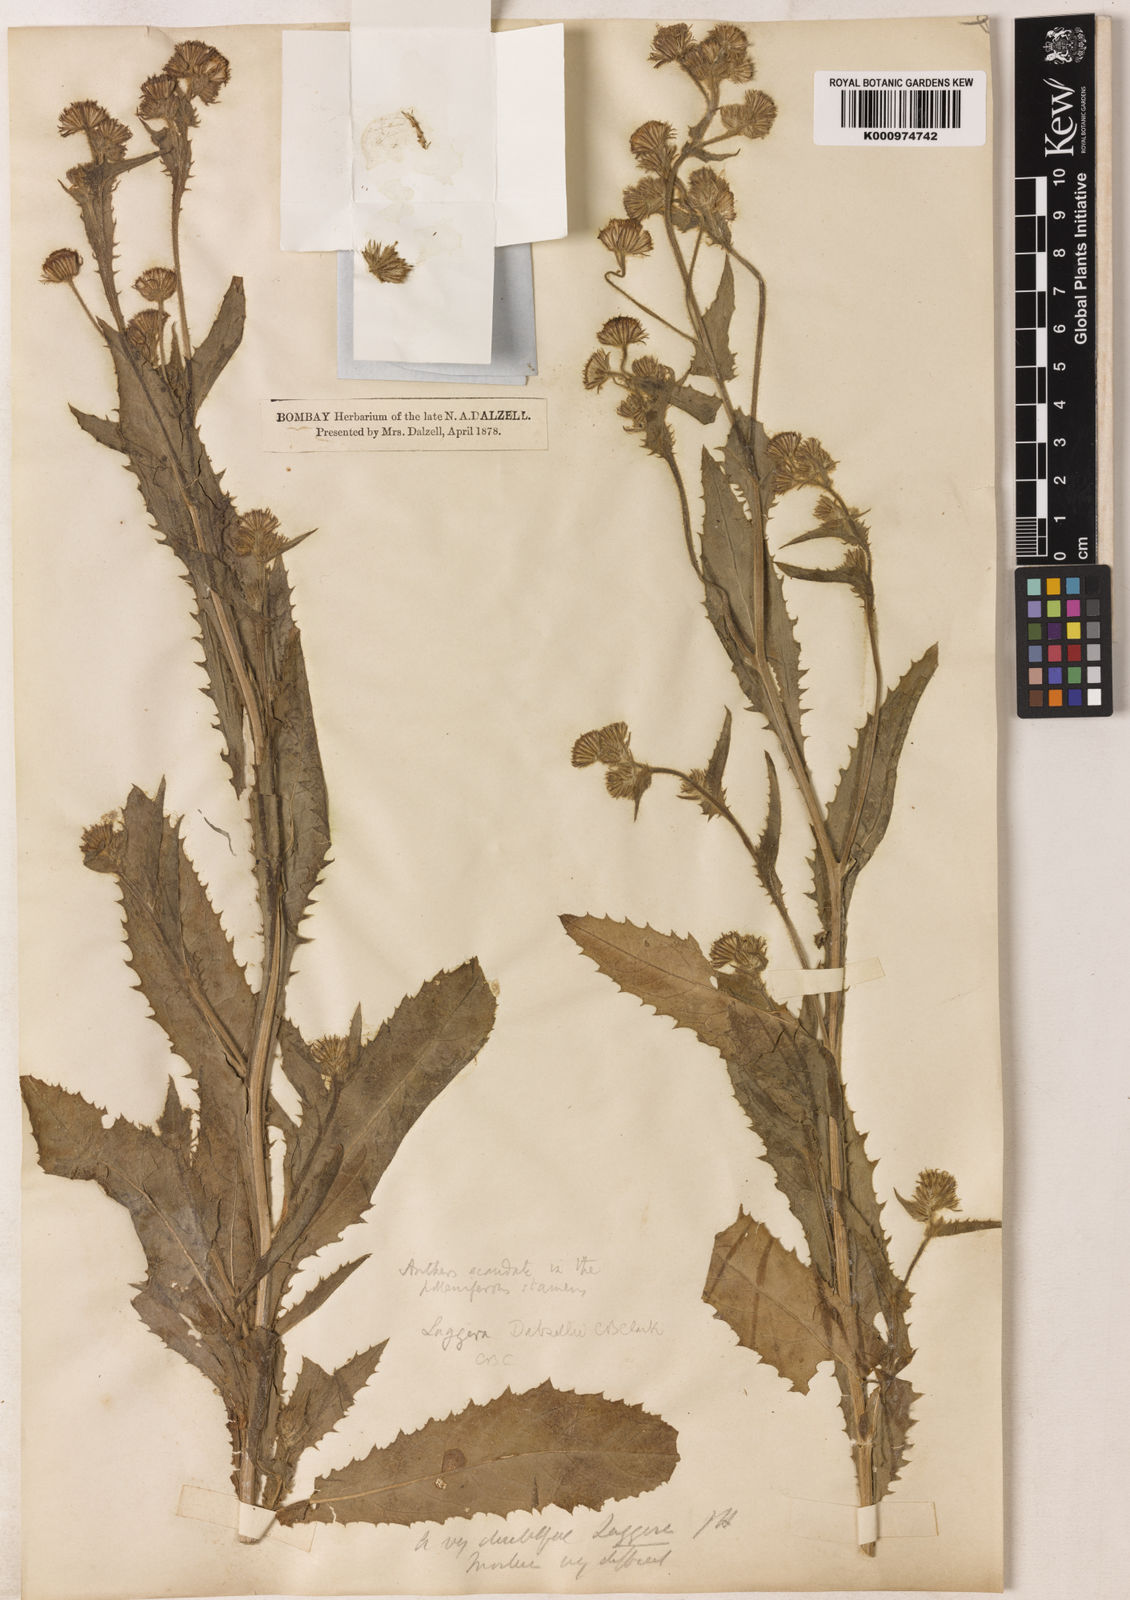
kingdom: Plantae
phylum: Tracheophyta
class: Magnoliopsida
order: Asterales
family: Asteraceae
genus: Laggera
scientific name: Laggera
